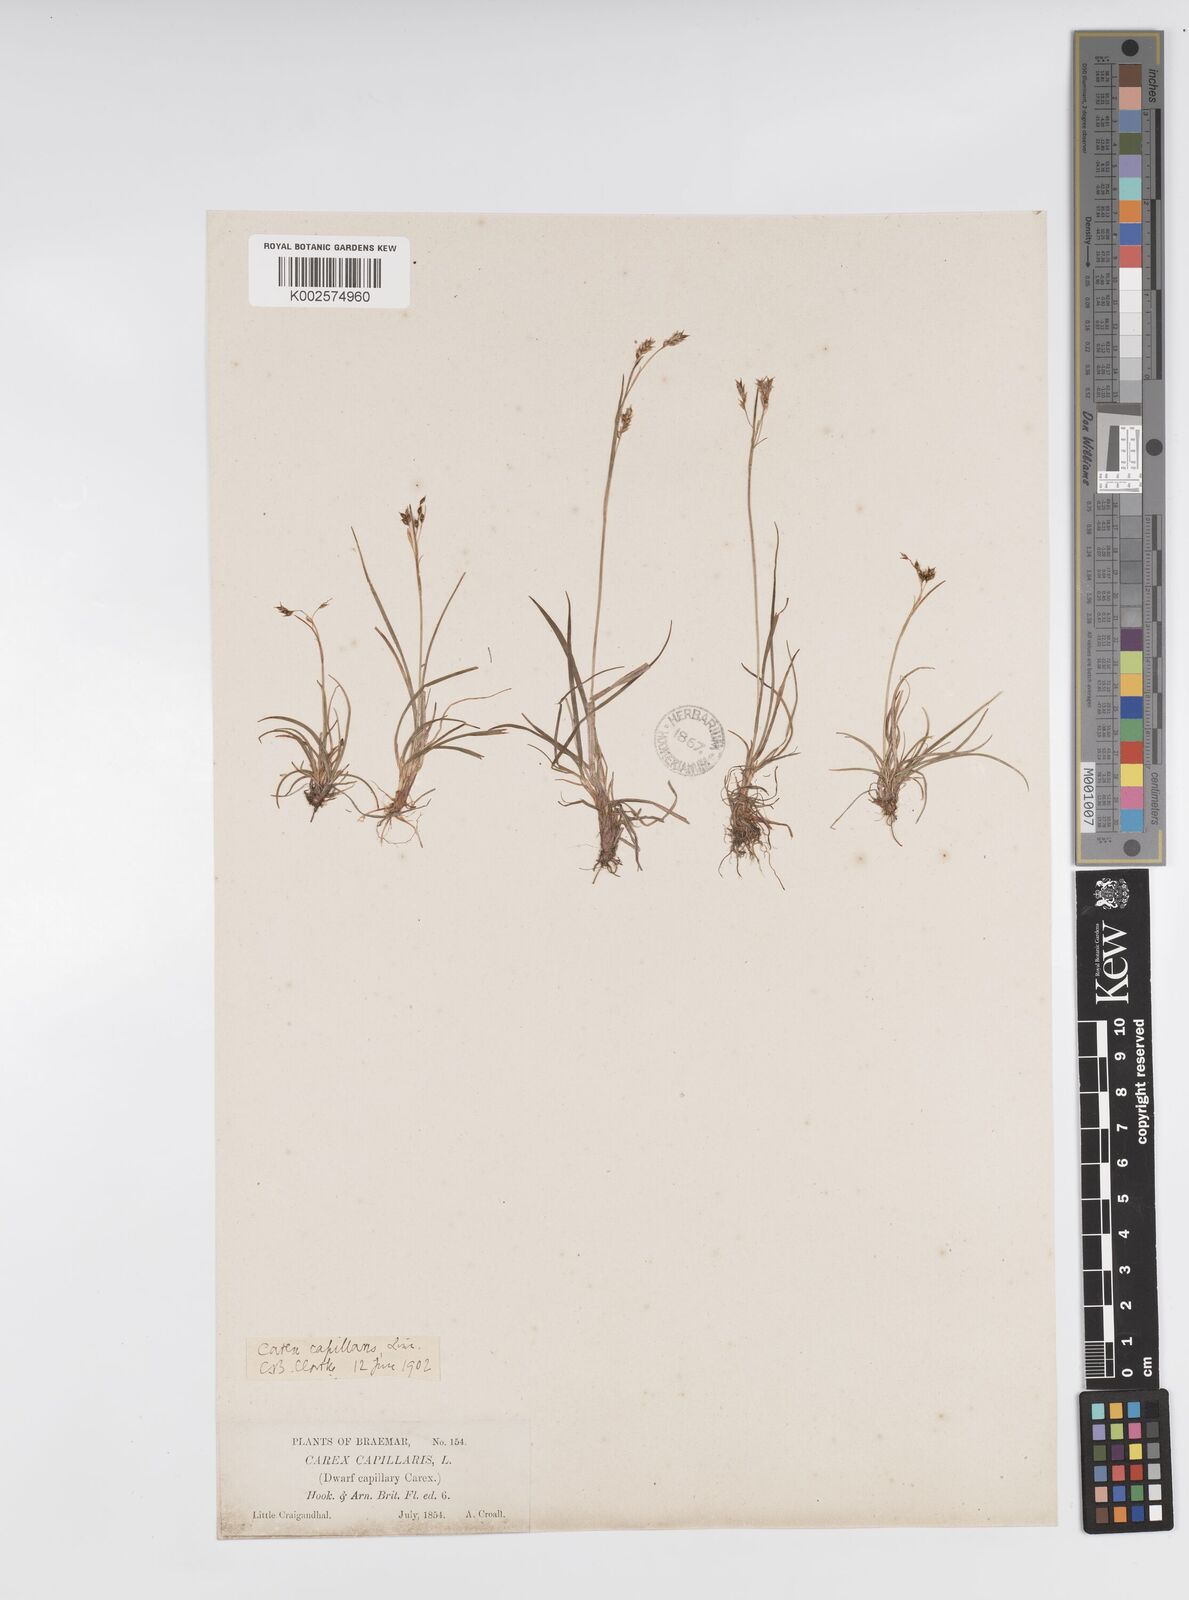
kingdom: Plantae
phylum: Tracheophyta
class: Liliopsida
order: Poales
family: Cyperaceae
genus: Carex
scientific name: Carex capillaris
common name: Hair sedge
